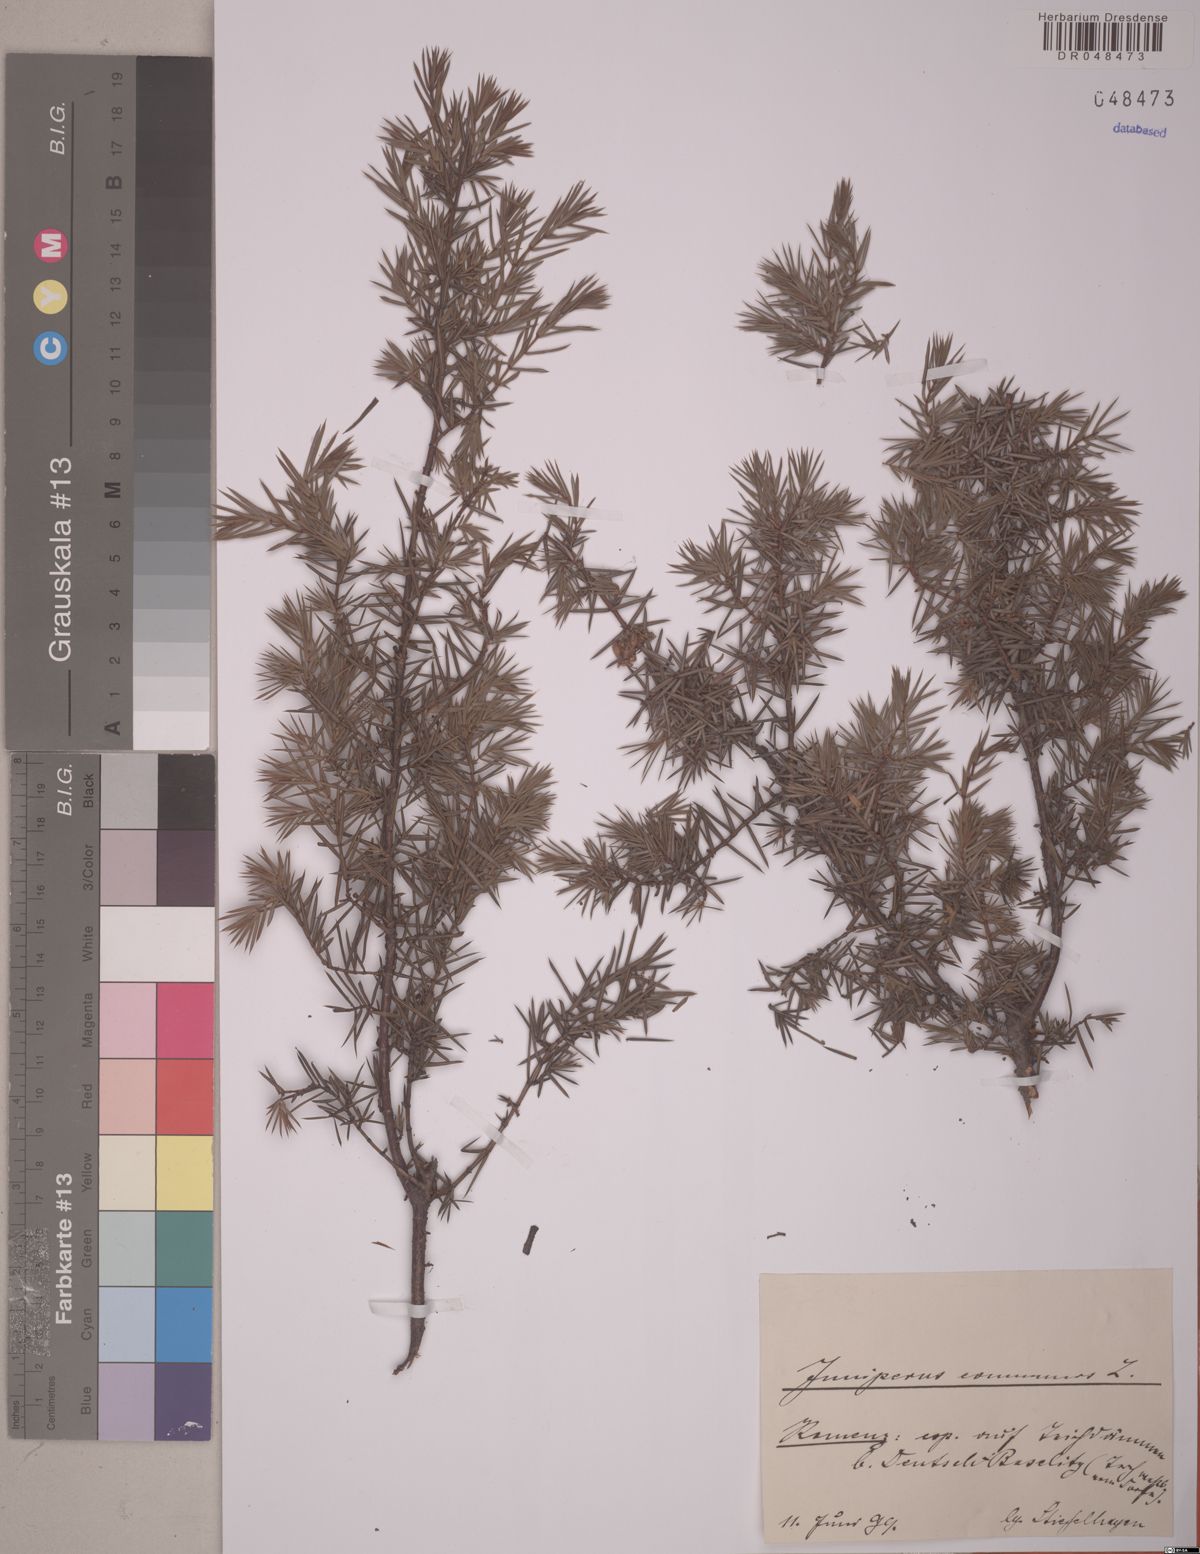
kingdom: Plantae
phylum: Tracheophyta
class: Pinopsida
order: Pinales
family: Cupressaceae
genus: Juniperus
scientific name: Juniperus communis
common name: Common juniper
